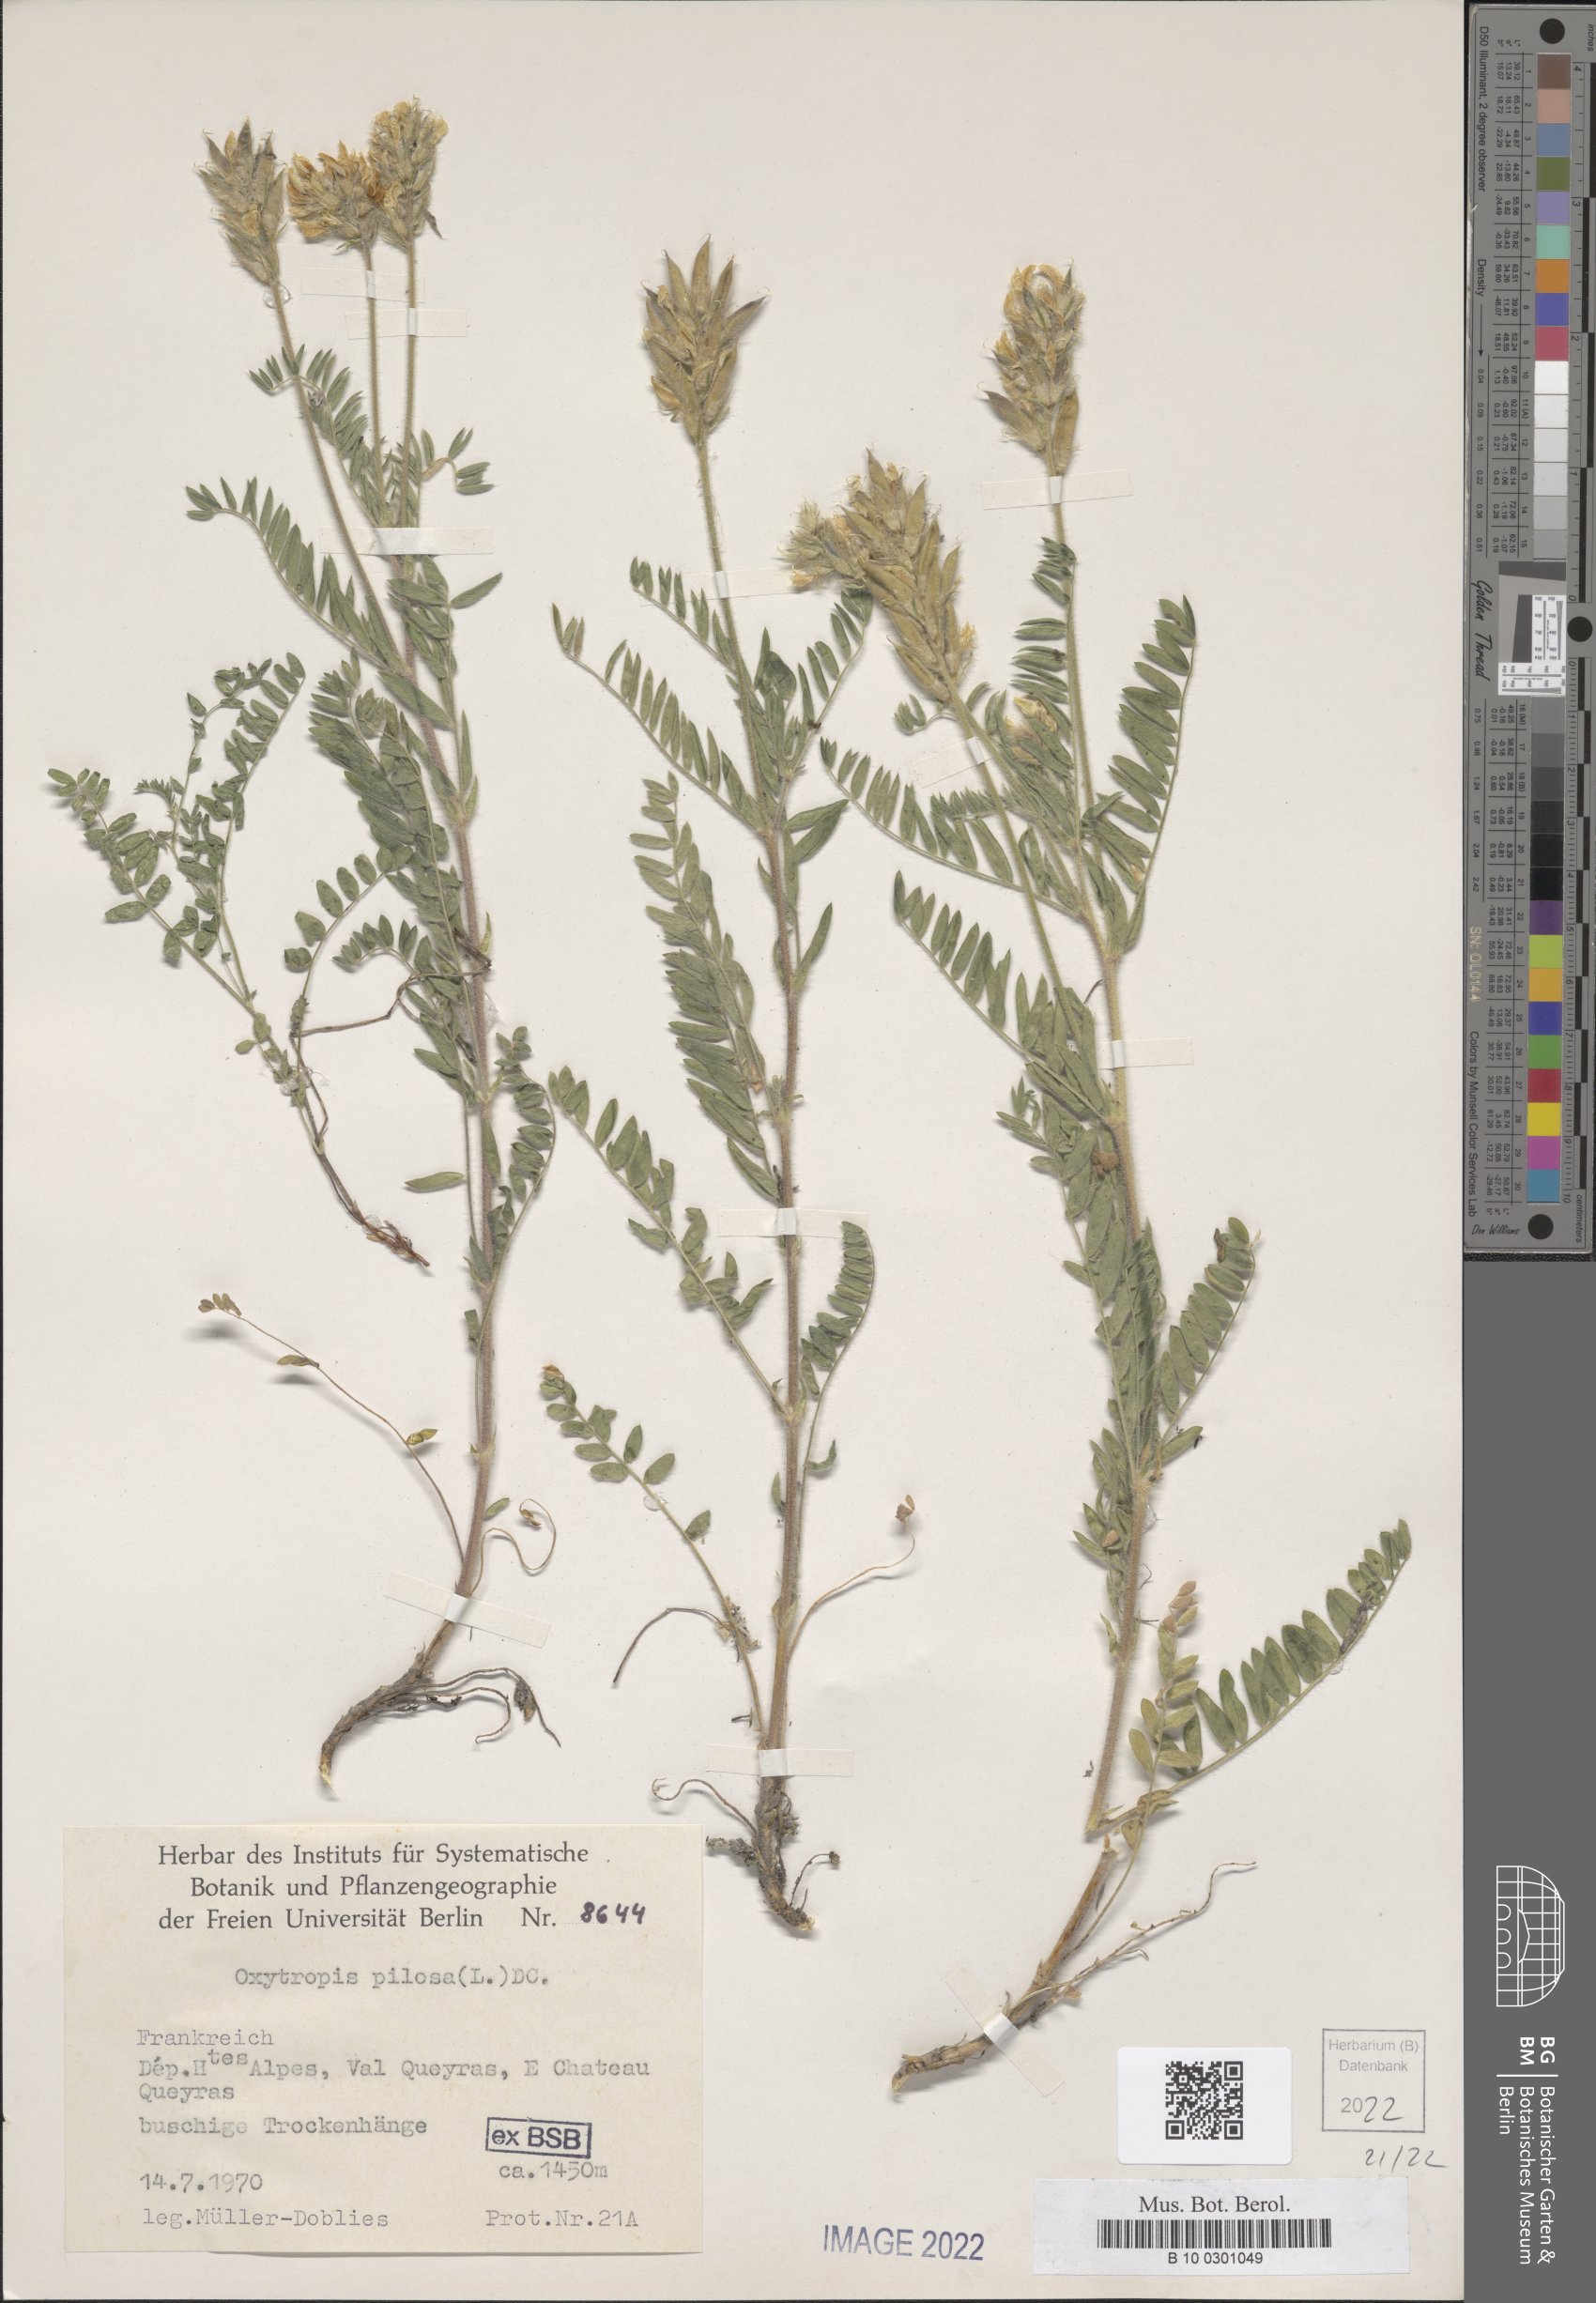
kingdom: Plantae
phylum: Tracheophyta
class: Magnoliopsida
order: Fabales
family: Fabaceae
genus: Oxytropis
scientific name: Oxytropis pilosa
